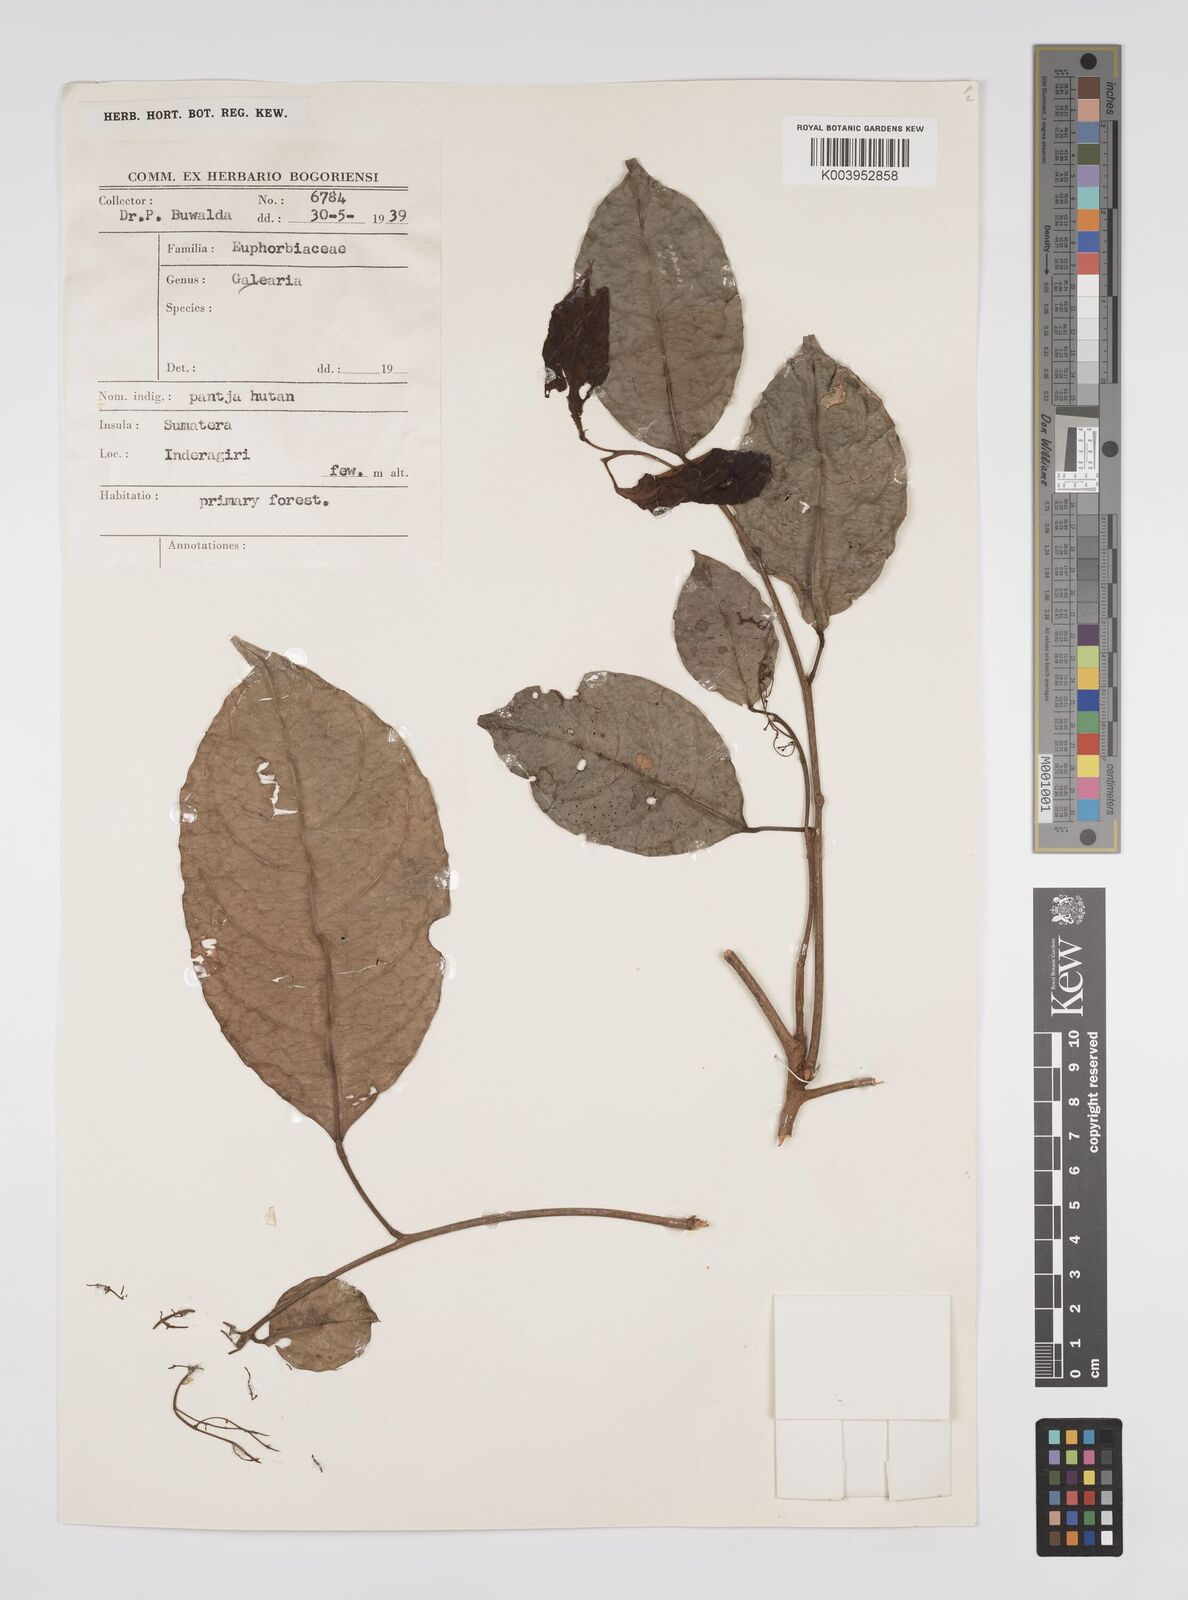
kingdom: Plantae
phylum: Tracheophyta
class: Magnoliopsida
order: Malpighiales
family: Euphorbiaceae
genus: Neoscortechinia
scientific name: Neoscortechinia philippinensis
